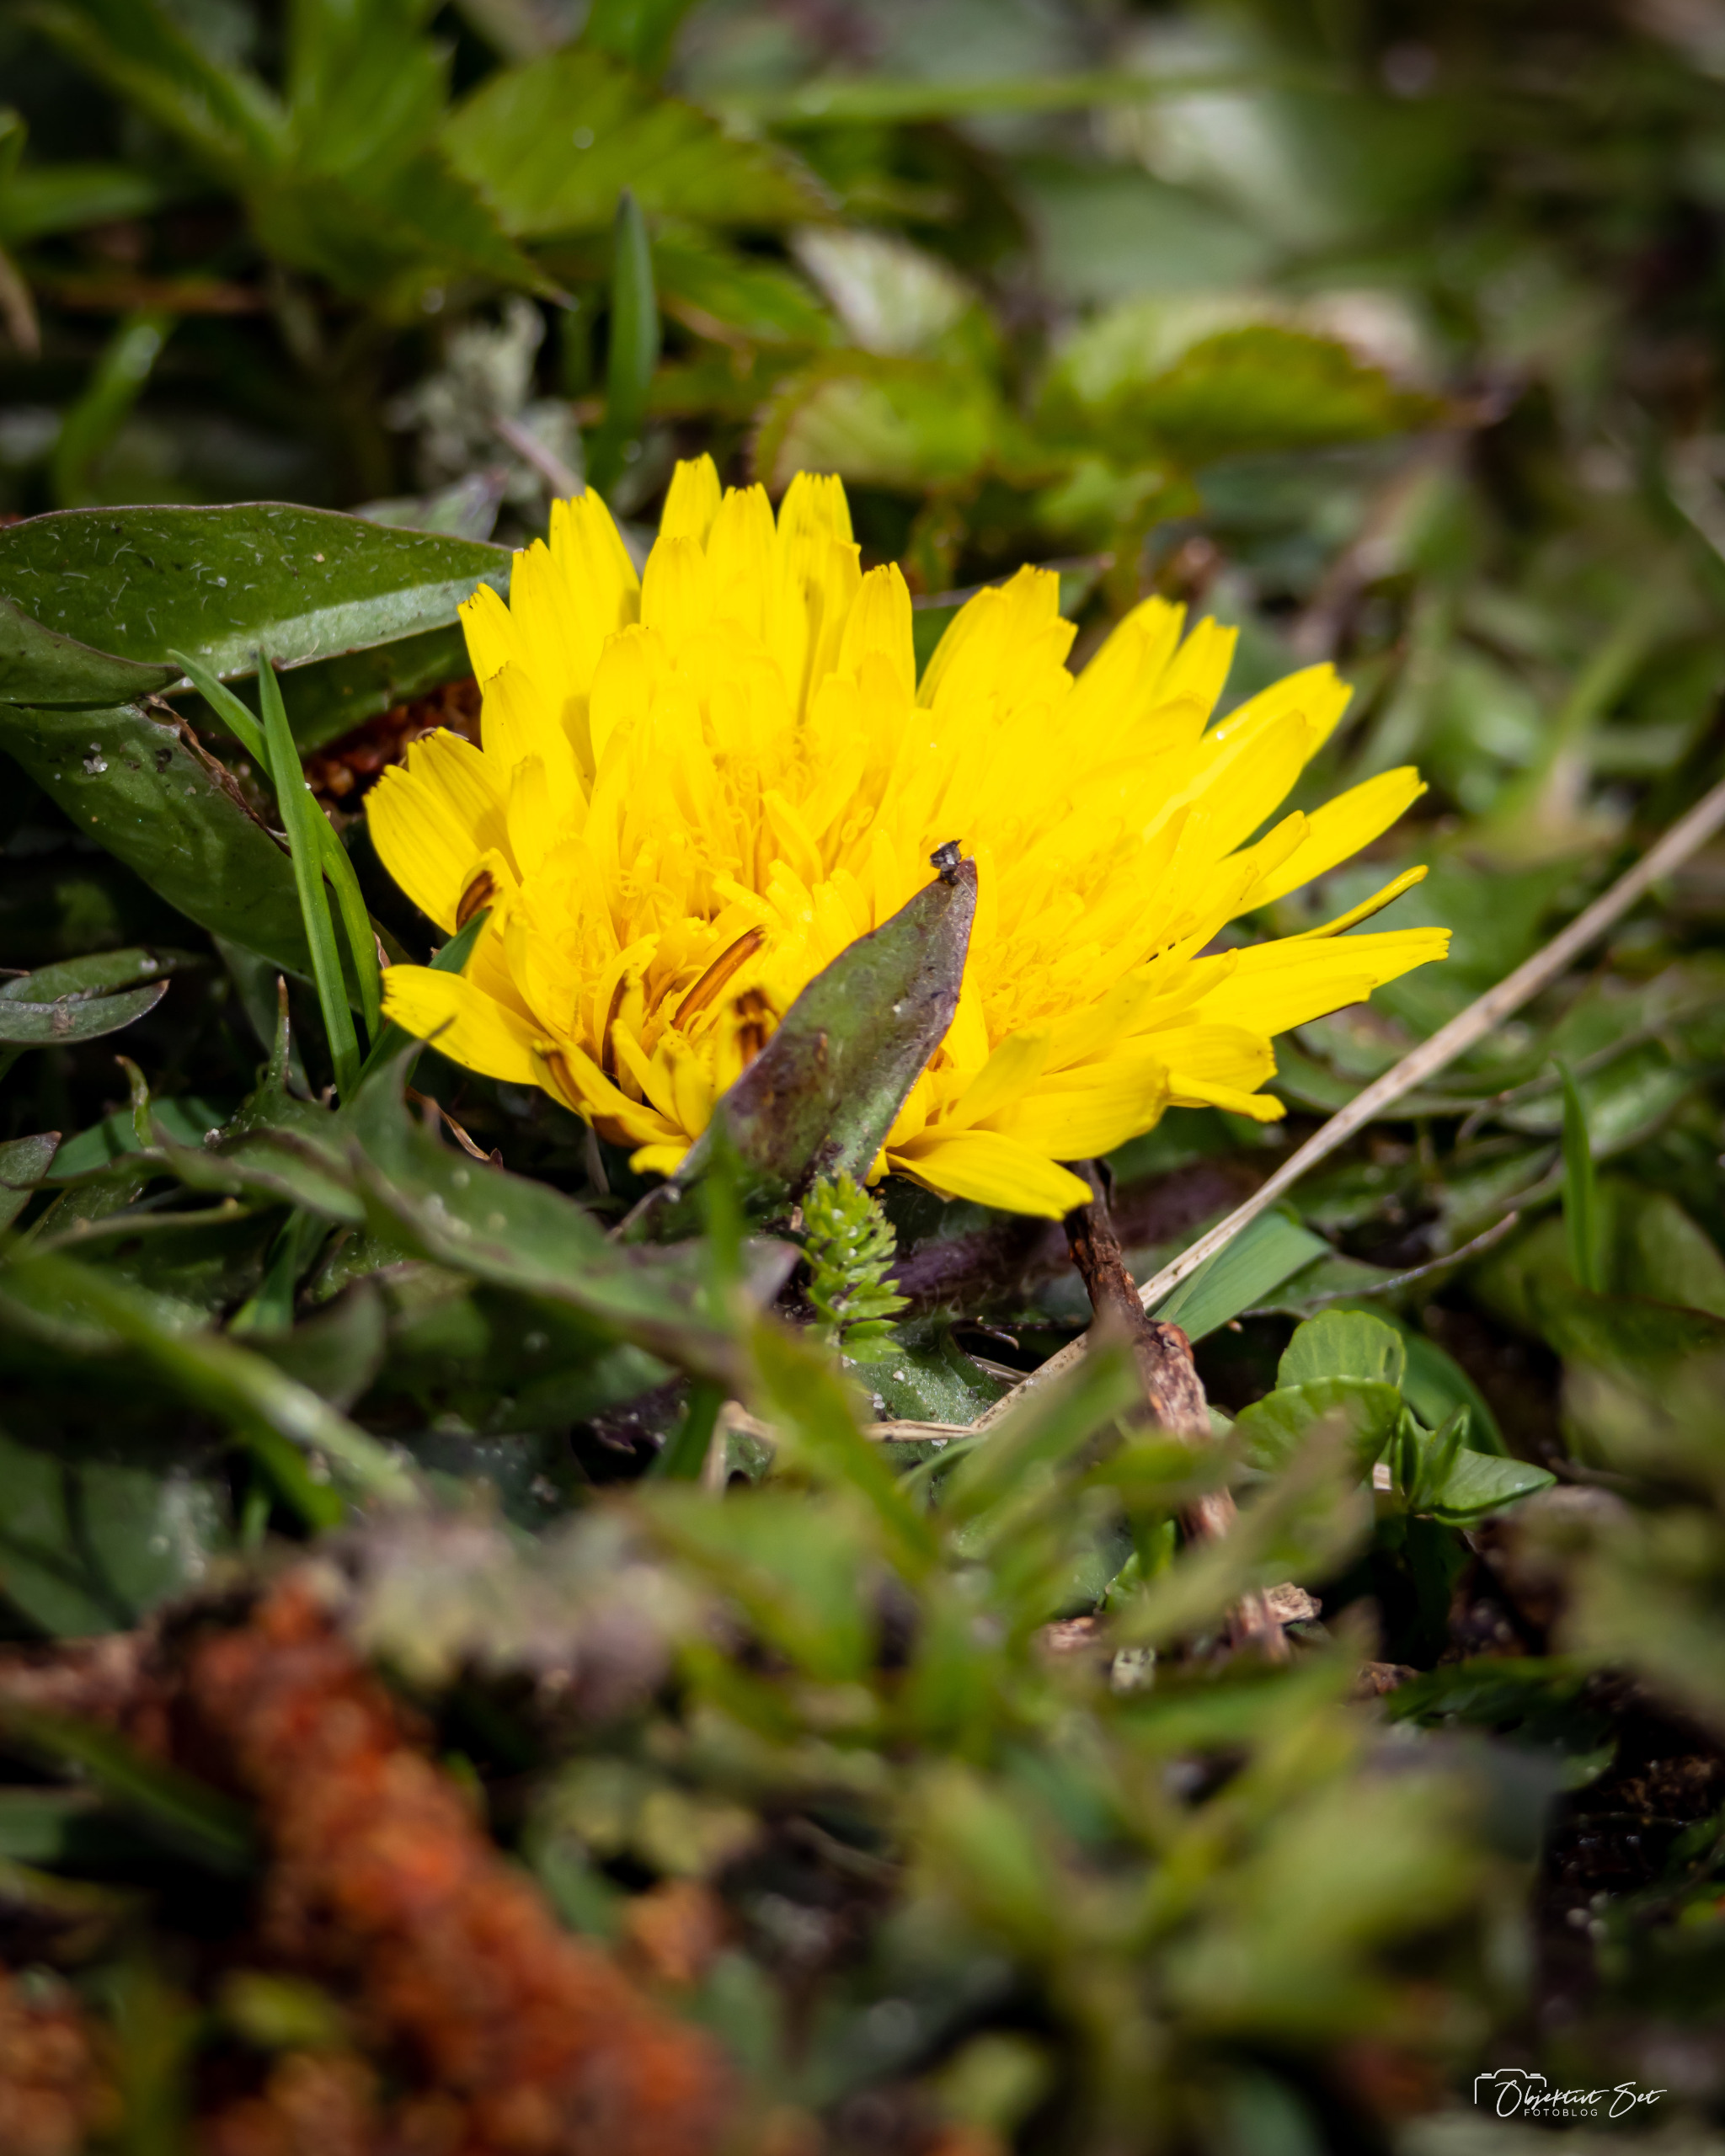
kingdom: Plantae
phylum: Tracheophyta
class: Magnoliopsida
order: Asterales
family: Asteraceae
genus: Taraxacum
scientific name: Taraxacum
